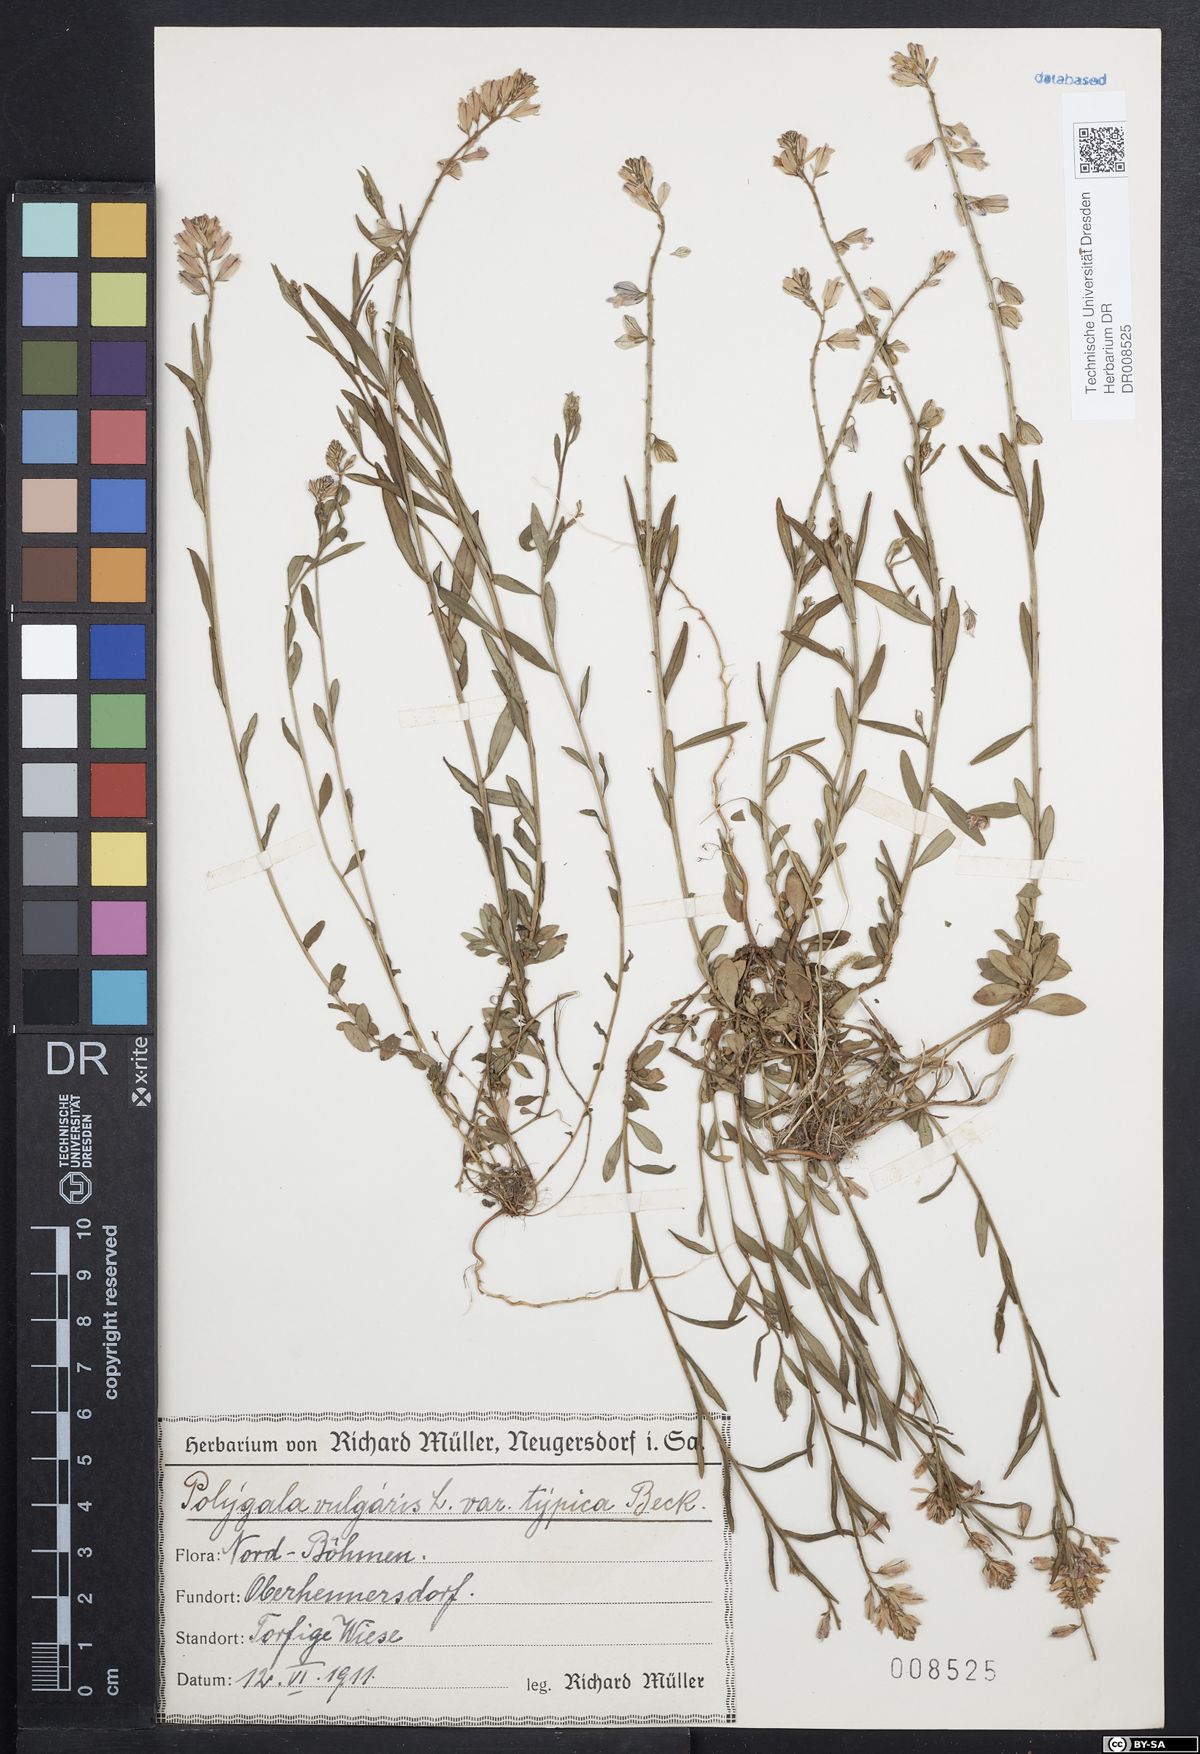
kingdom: Plantae
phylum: Tracheophyta
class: Magnoliopsida
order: Fabales
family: Polygalaceae
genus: Polygala
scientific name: Polygala vulgaris
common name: Common milkwort
